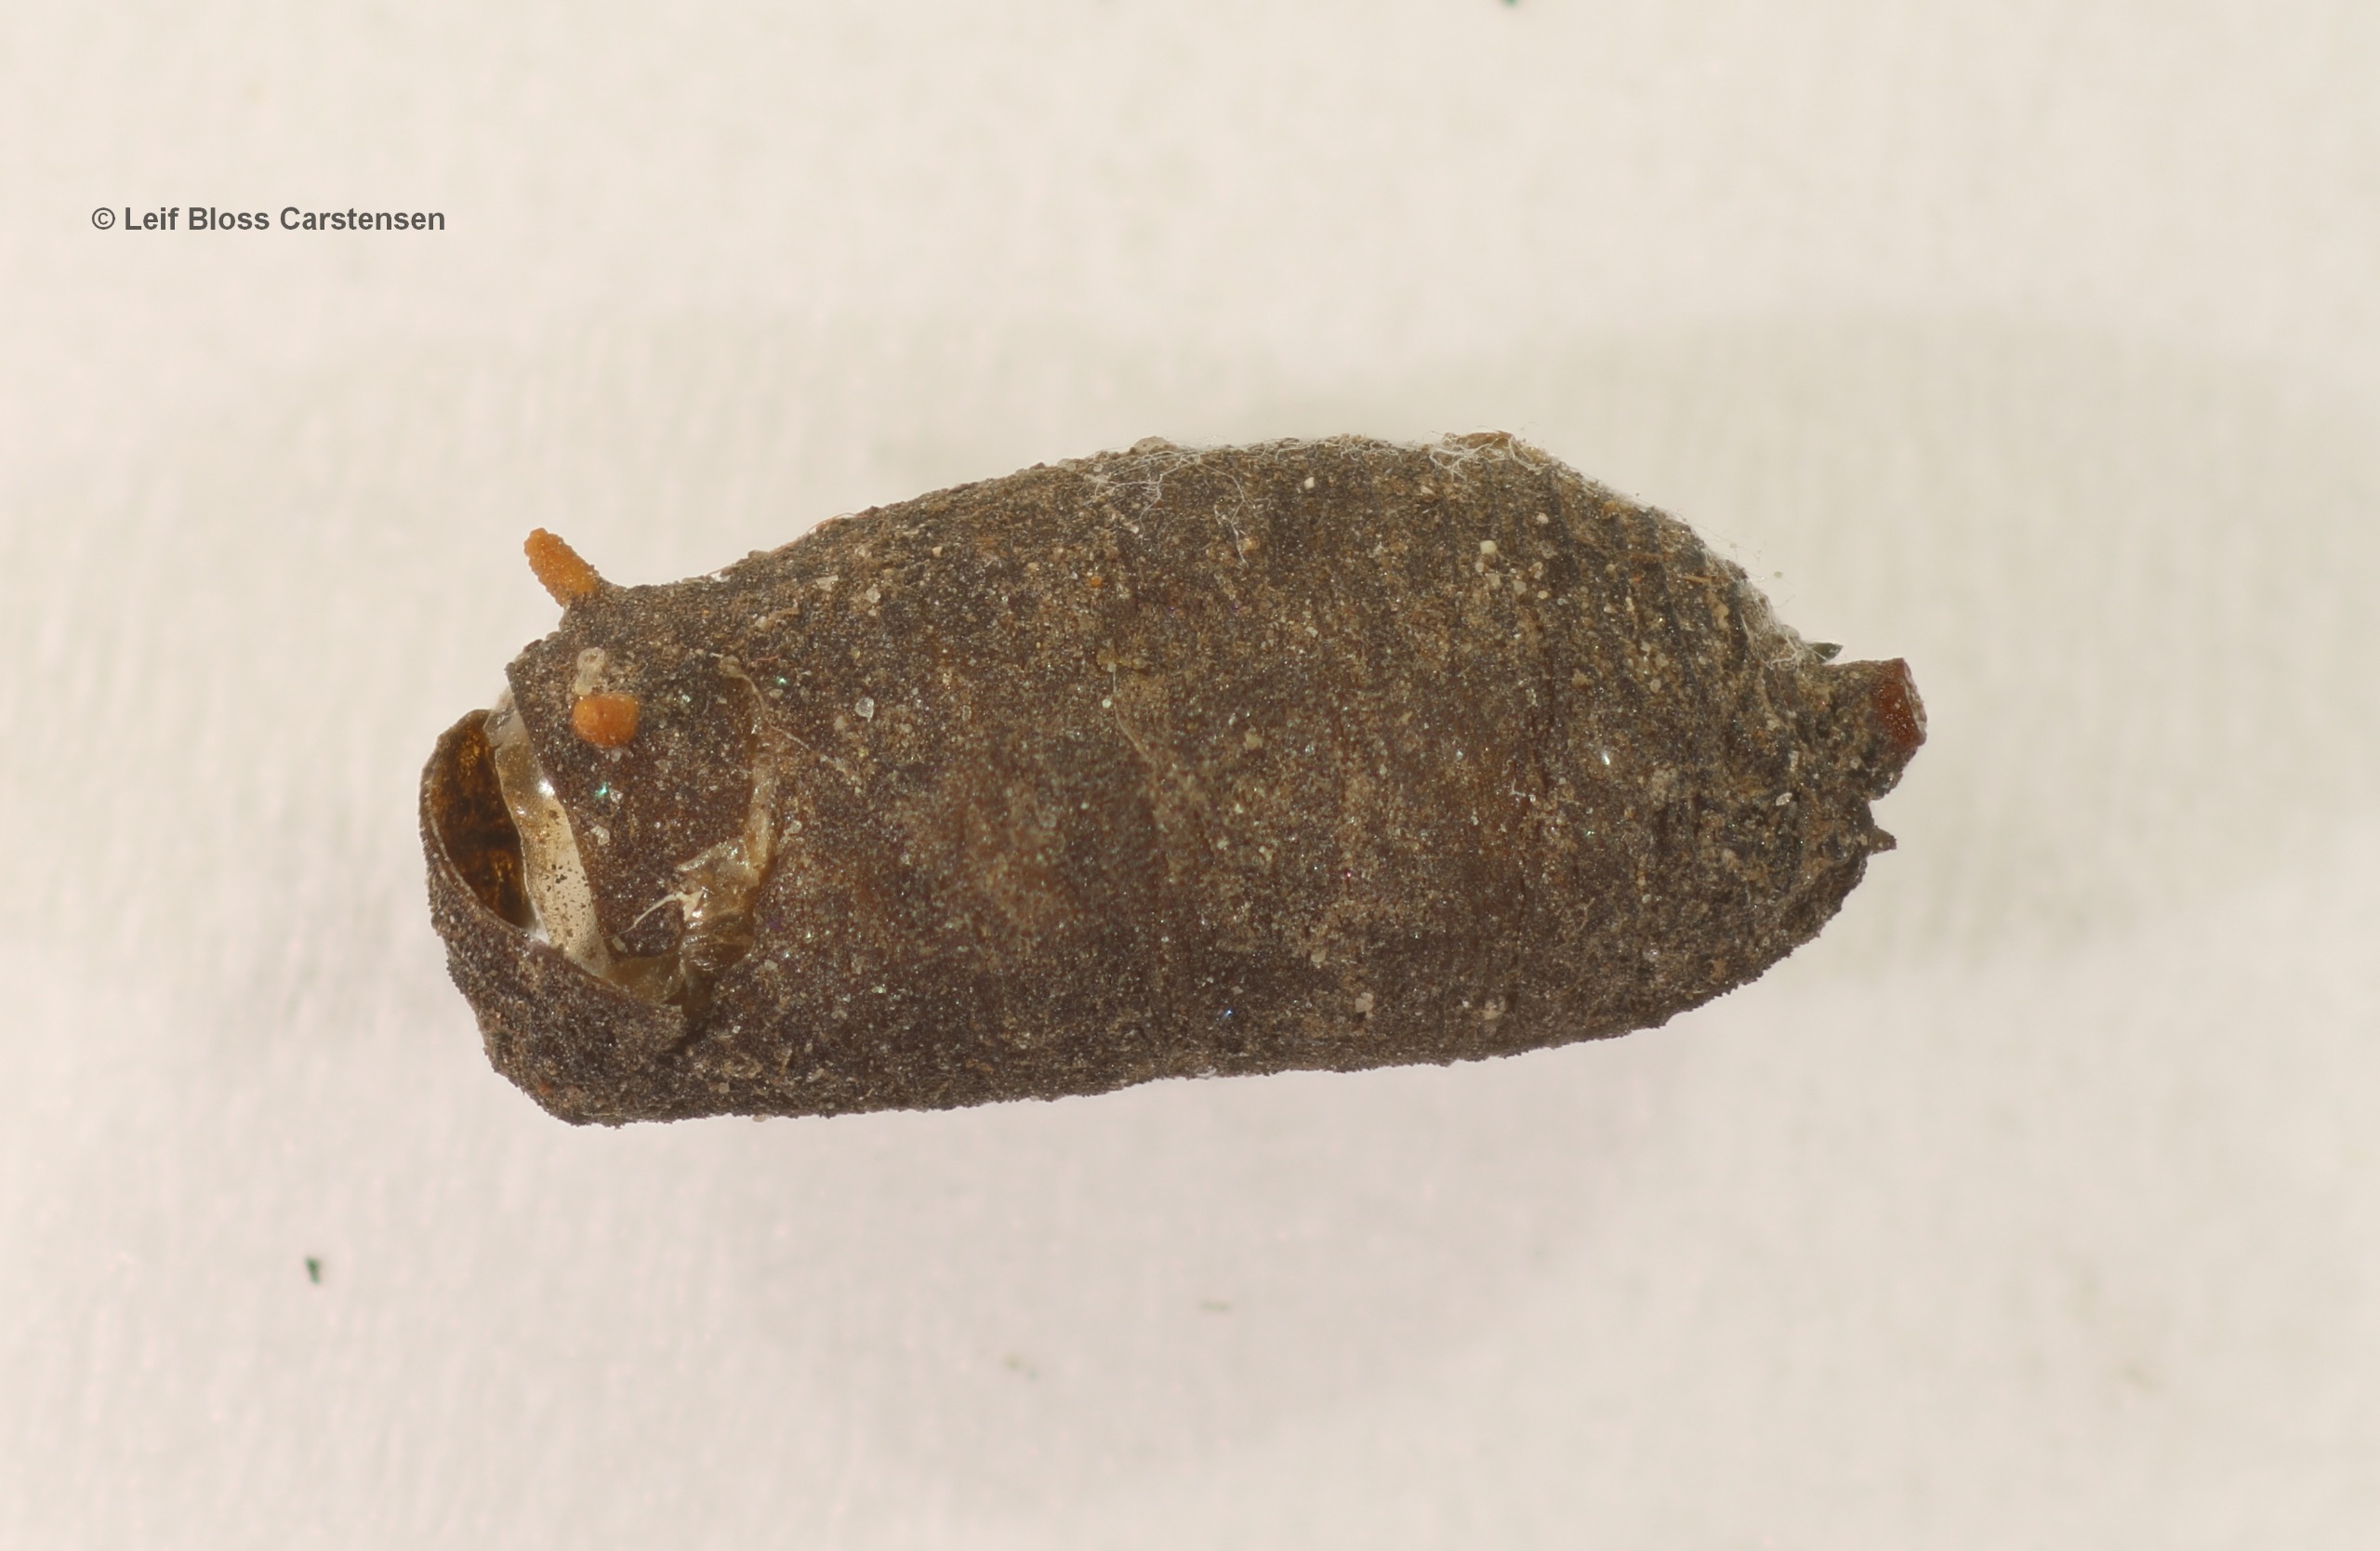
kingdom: Animalia
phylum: Arthropoda
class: Insecta
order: Diptera
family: Syrphidae
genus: Cheilosia
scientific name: Cheilosia gigantea
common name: Stor urtesvirreflue
